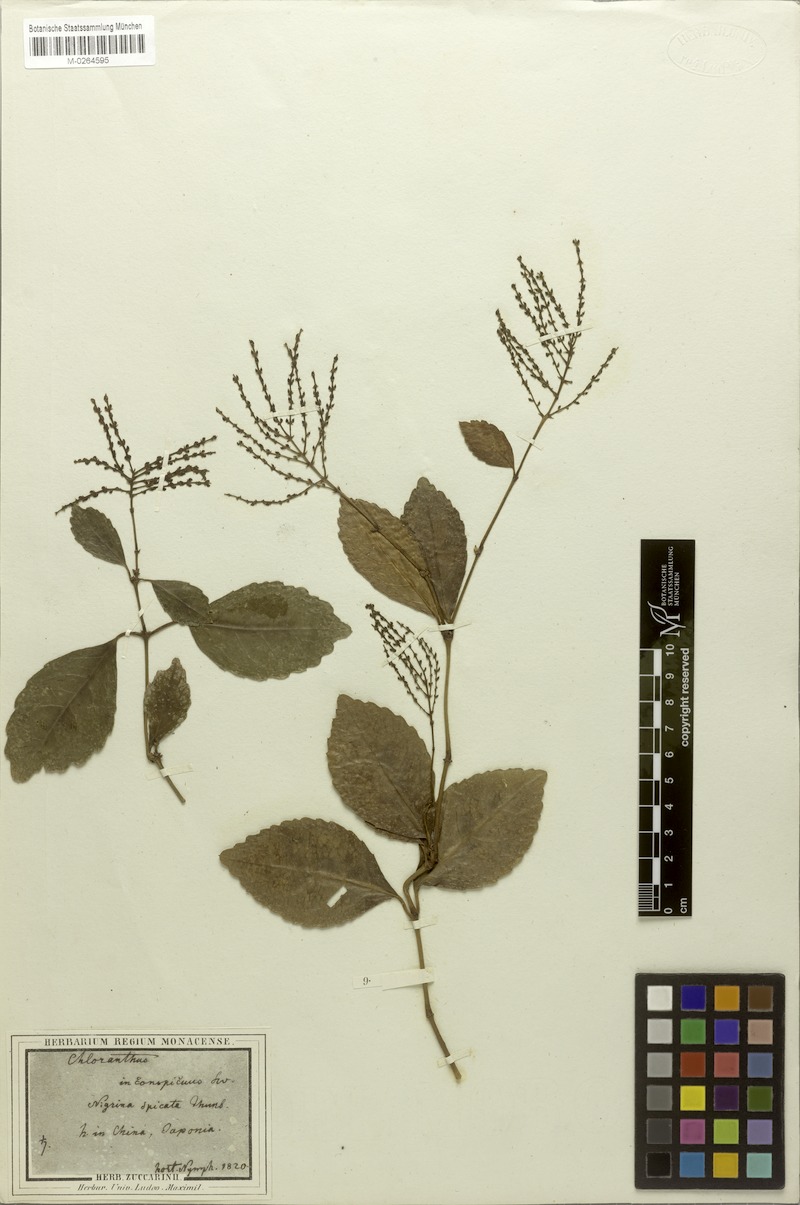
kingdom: Plantae
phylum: Tracheophyta
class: Magnoliopsida
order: Chloranthales
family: Chloranthaceae
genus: Chloranthus
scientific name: Chloranthus spicatus
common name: Chulantree
